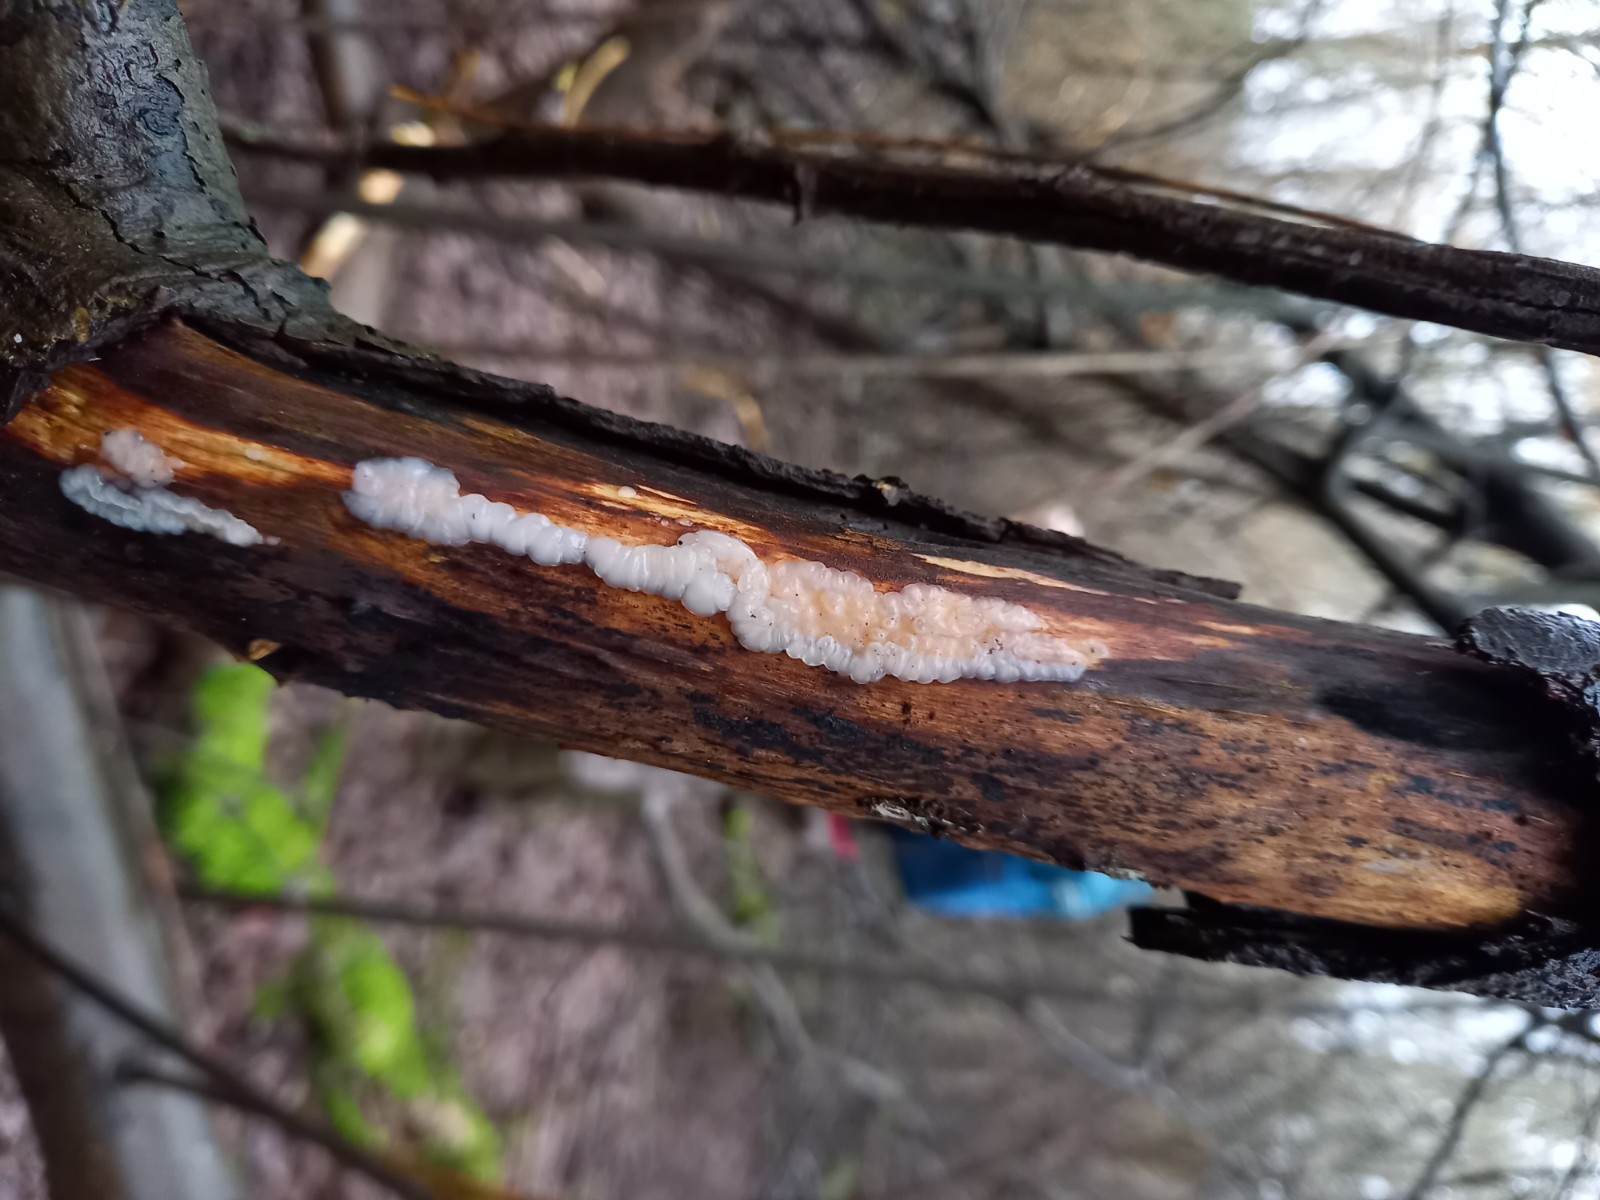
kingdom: Fungi
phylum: Basidiomycota
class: Agaricomycetes
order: Auriculariales
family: Auriculariaceae
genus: Exidia
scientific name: Exidia thuretiana
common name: hvidlig bævretop
